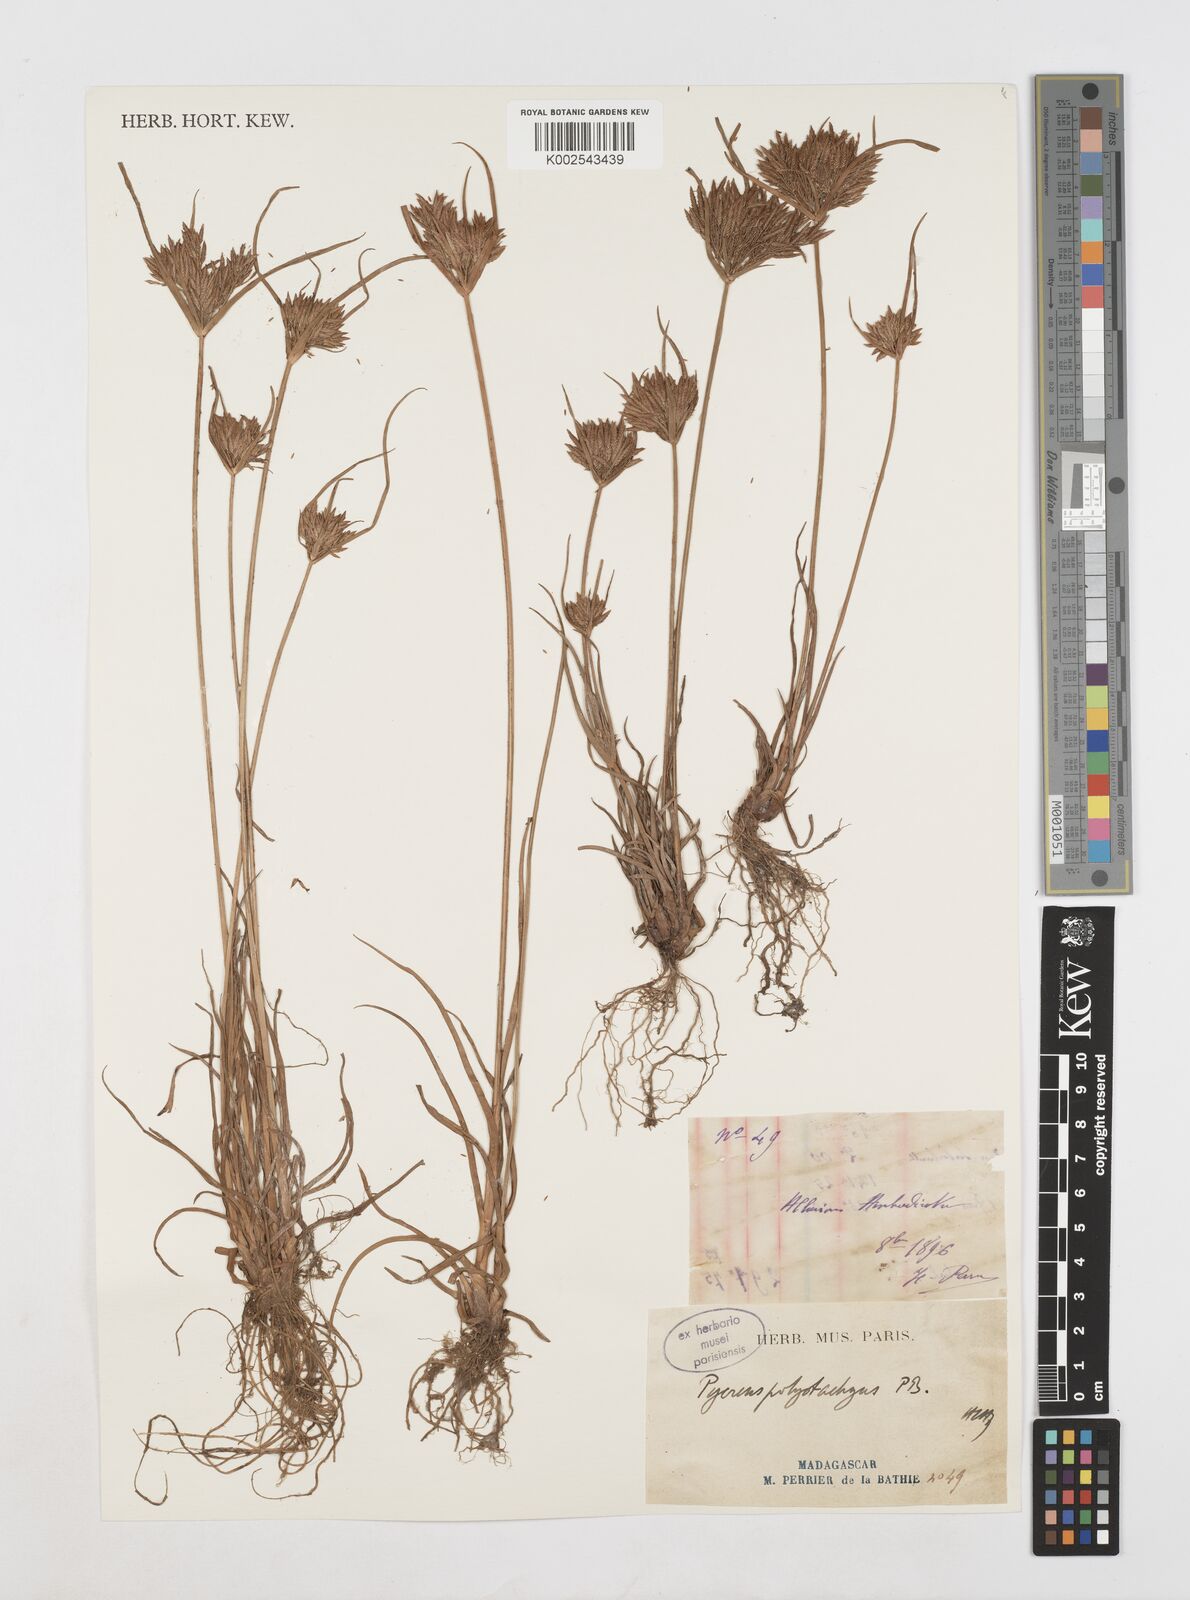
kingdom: Plantae
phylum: Tracheophyta
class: Liliopsida
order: Poales
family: Cyperaceae
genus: Cyperus
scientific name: Cyperus polystachyos
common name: Bunchy flat sedge
